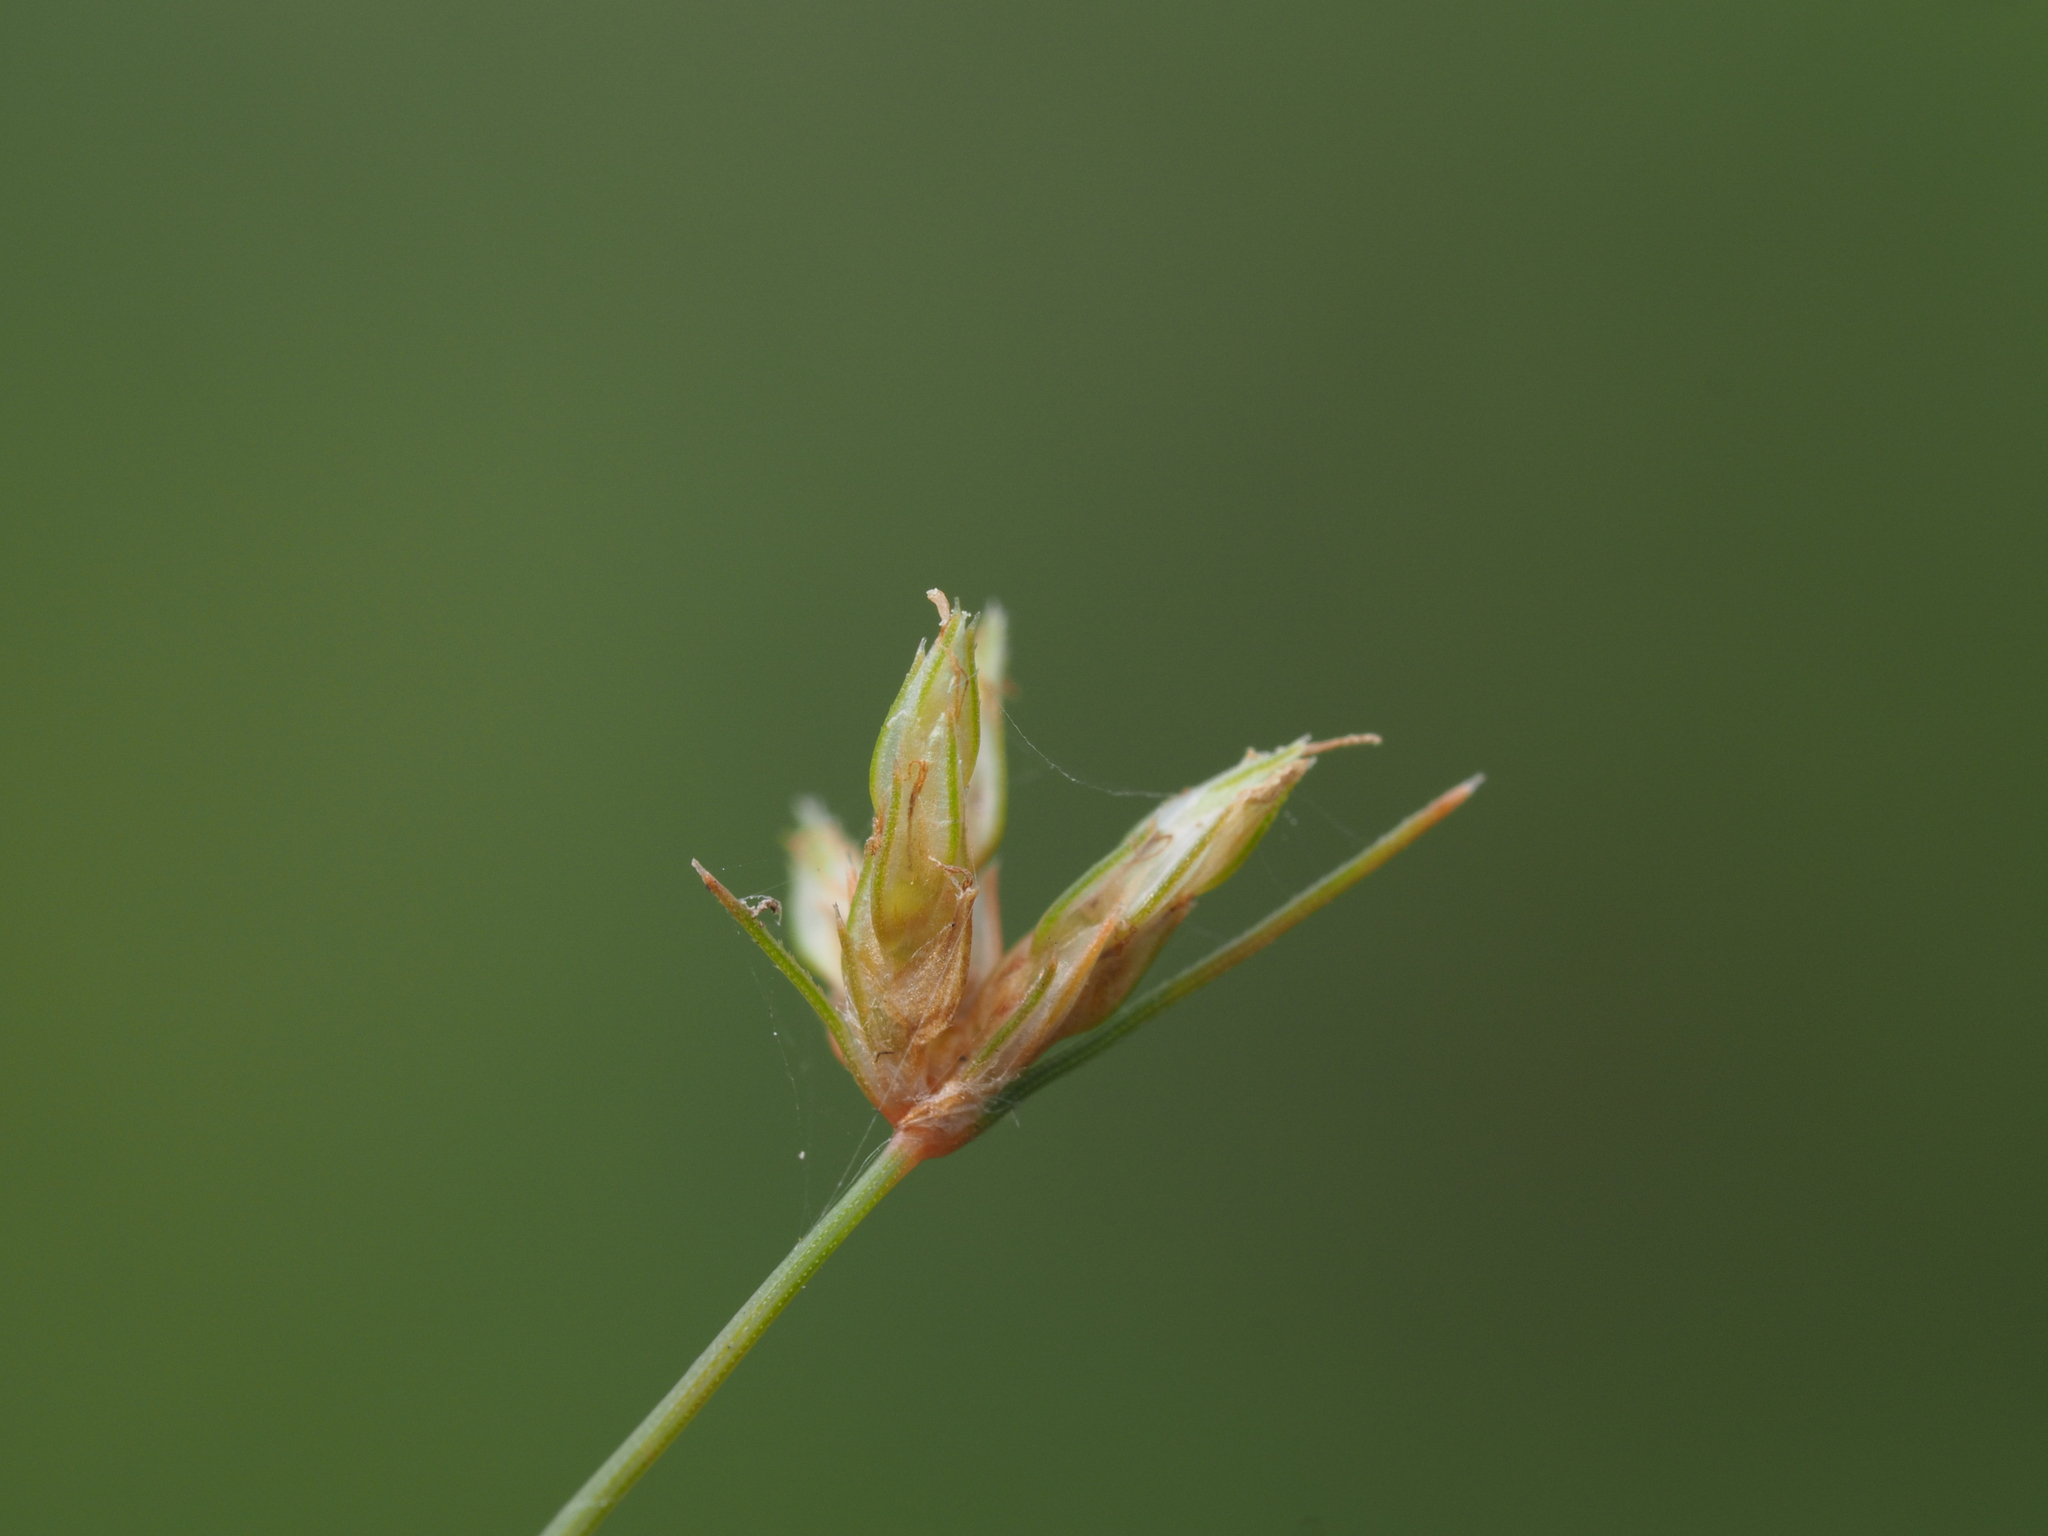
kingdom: Plantae
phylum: Tracheophyta
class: Liliopsida
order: Poales
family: Cyperaceae
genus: Bulbostylis
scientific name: Bulbostylis barbata
